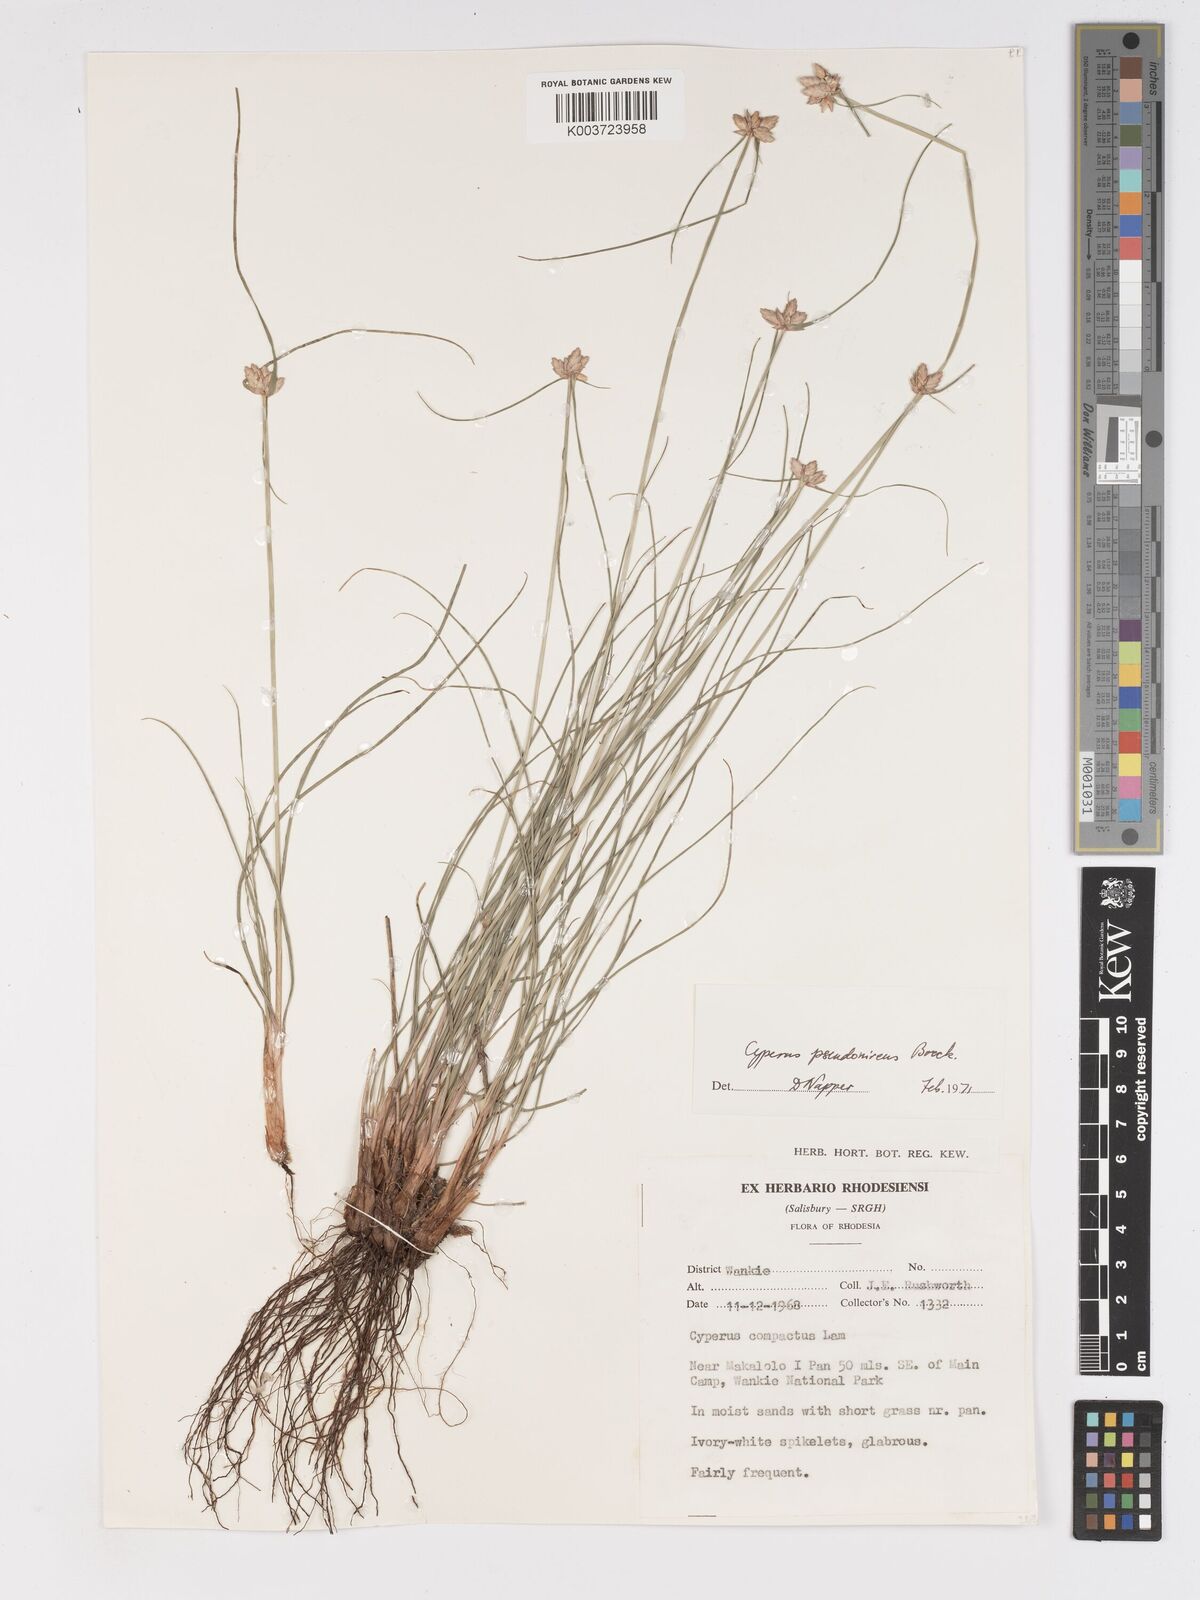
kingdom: Plantae
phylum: Tracheophyta
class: Liliopsida
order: Poales
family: Cyperaceae
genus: Cyperus
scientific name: Cyperus margaritaceus
